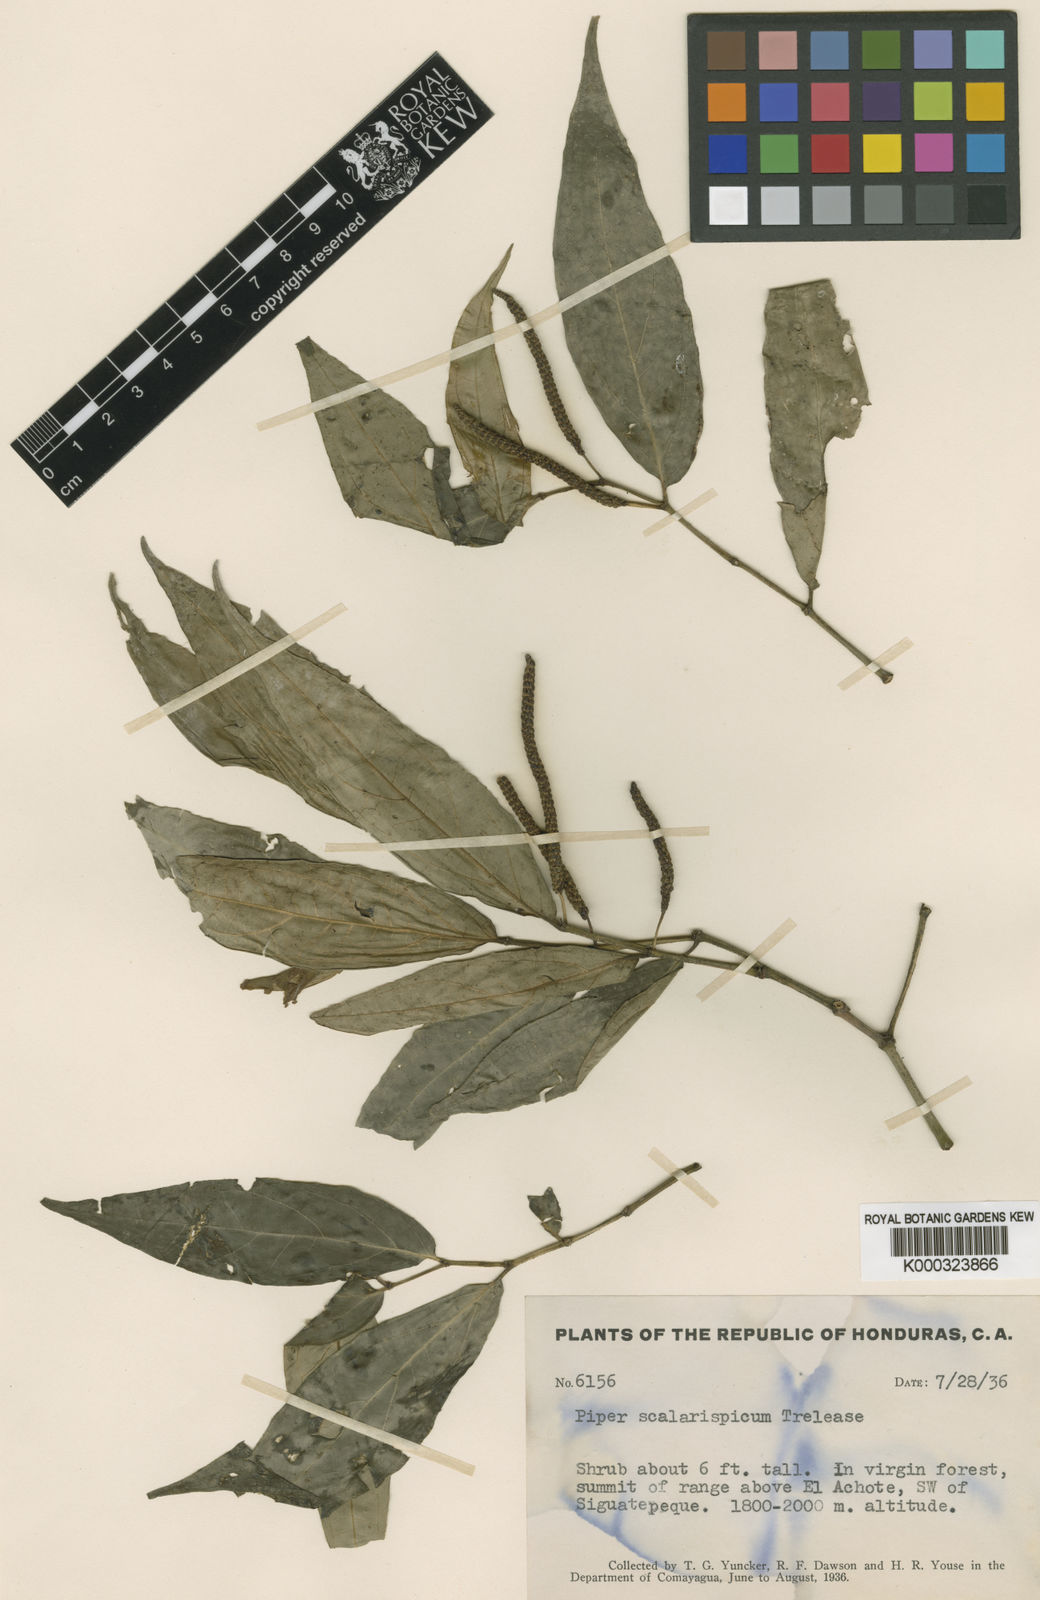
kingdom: Plantae
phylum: Tracheophyta
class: Magnoliopsida
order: Piperales
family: Piperaceae
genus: Piper
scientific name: Piper scalarispicum
